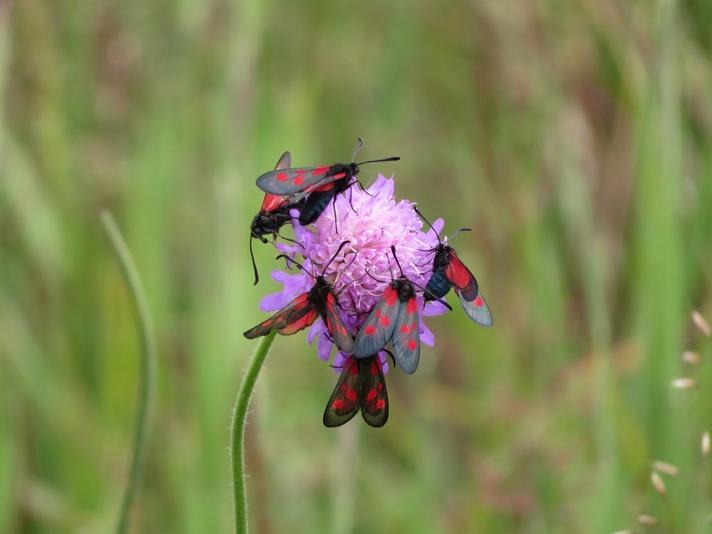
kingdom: Animalia
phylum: Arthropoda
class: Insecta
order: Lepidoptera
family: Zygaenidae
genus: Zygaena
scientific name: Zygaena viciae
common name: Lille køllesværmer
